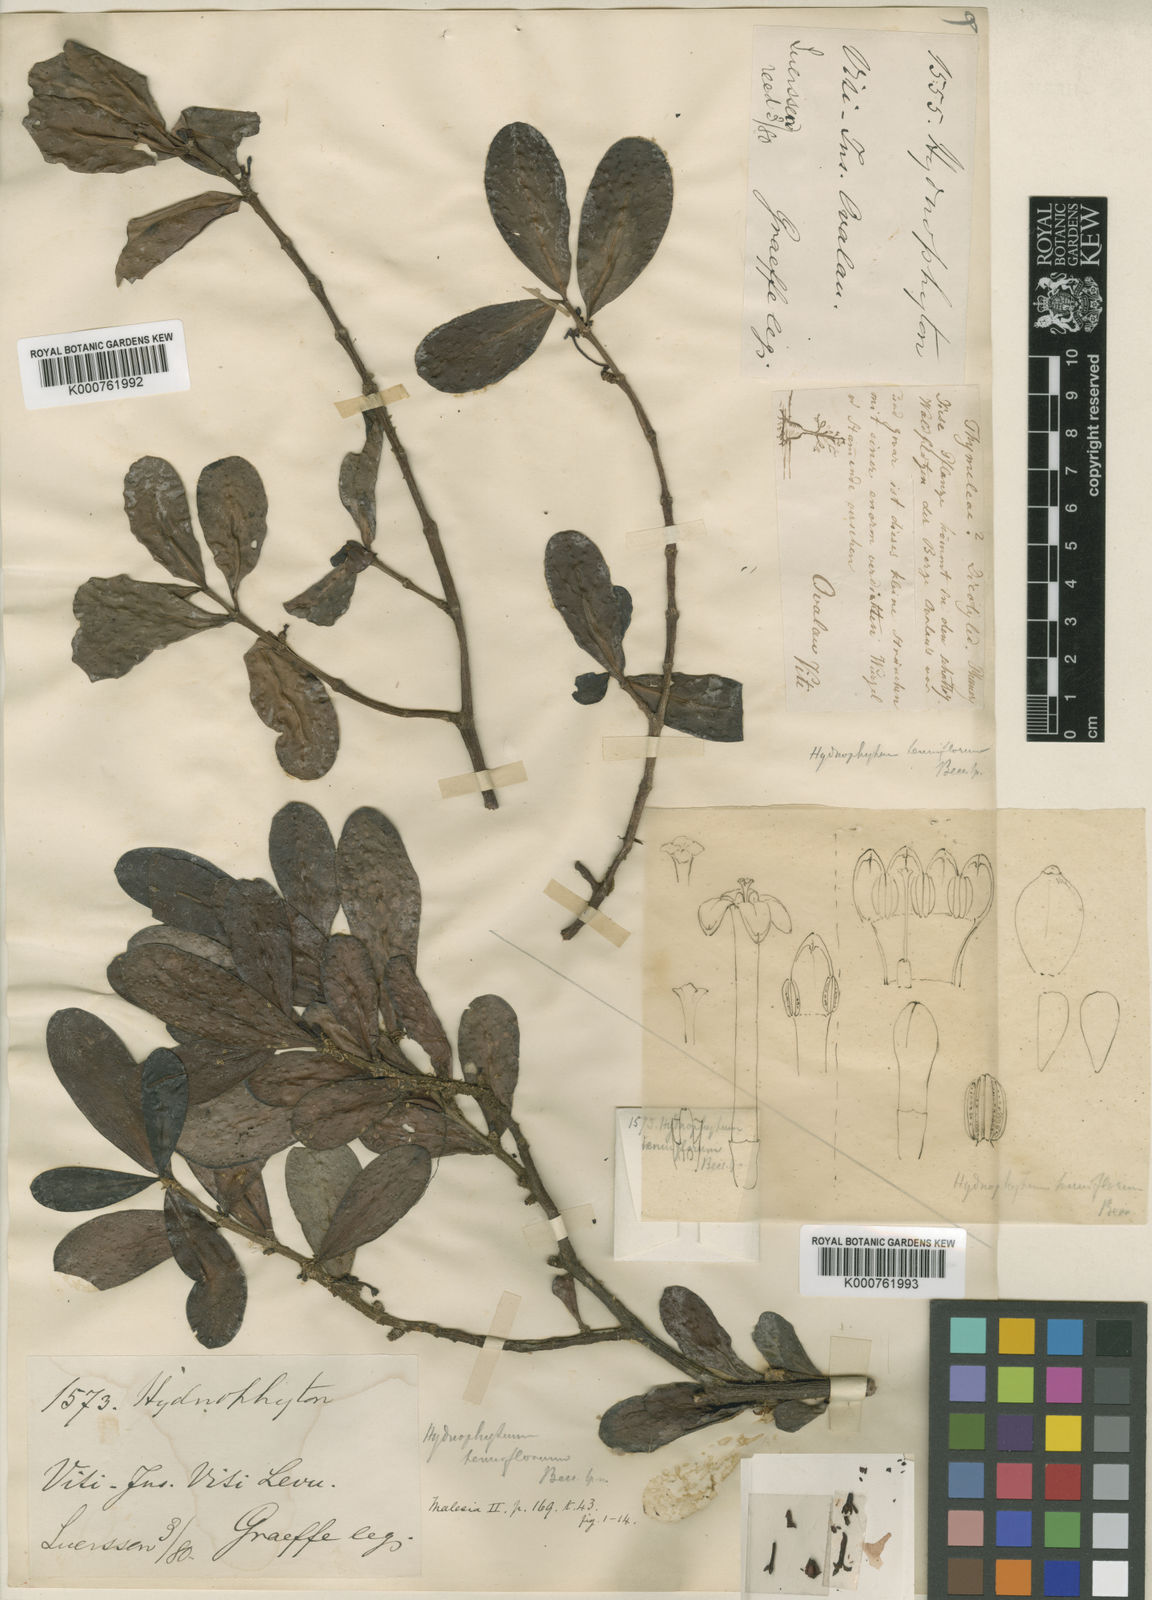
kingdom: Plantae
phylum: Tracheophyta
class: Magnoliopsida
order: Gentianales
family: Rubiaceae
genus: Hydnophytum
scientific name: Hydnophytum longiflorum
